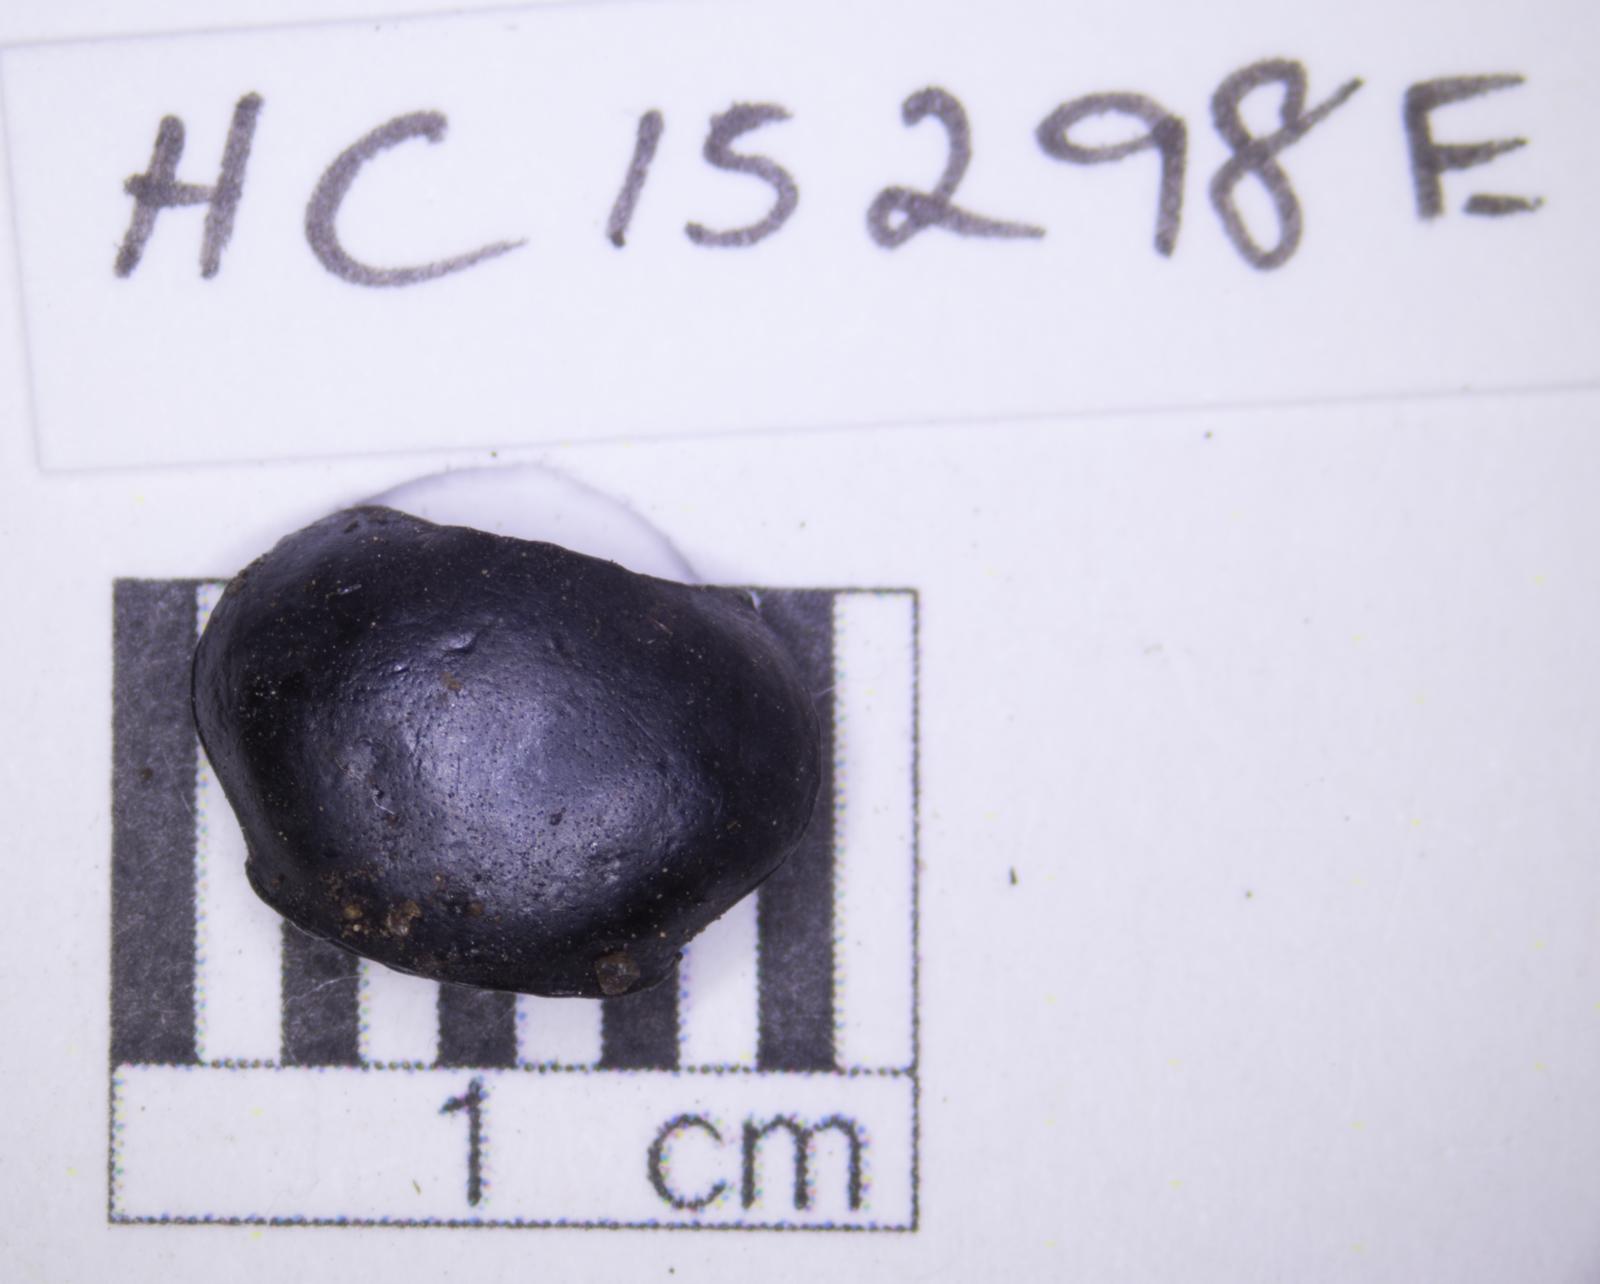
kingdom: Animalia
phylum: Arthropoda
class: Insecta
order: Coleoptera
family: Tenebrionidae
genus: Eleodes
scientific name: Eleodes acuticauda
